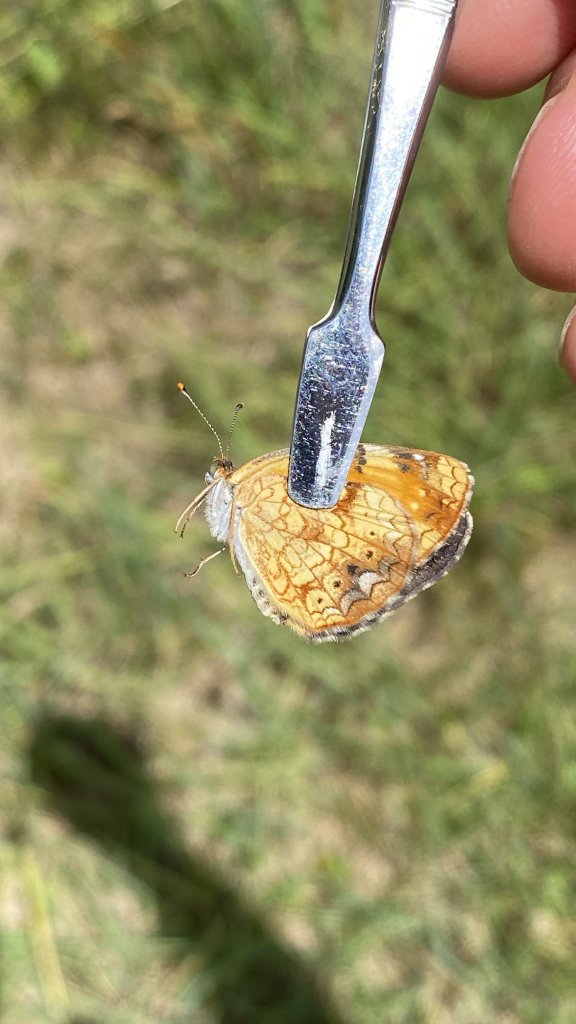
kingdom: Animalia
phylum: Arthropoda
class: Insecta
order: Lepidoptera
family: Nymphalidae
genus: Phyciodes
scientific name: Phyciodes
